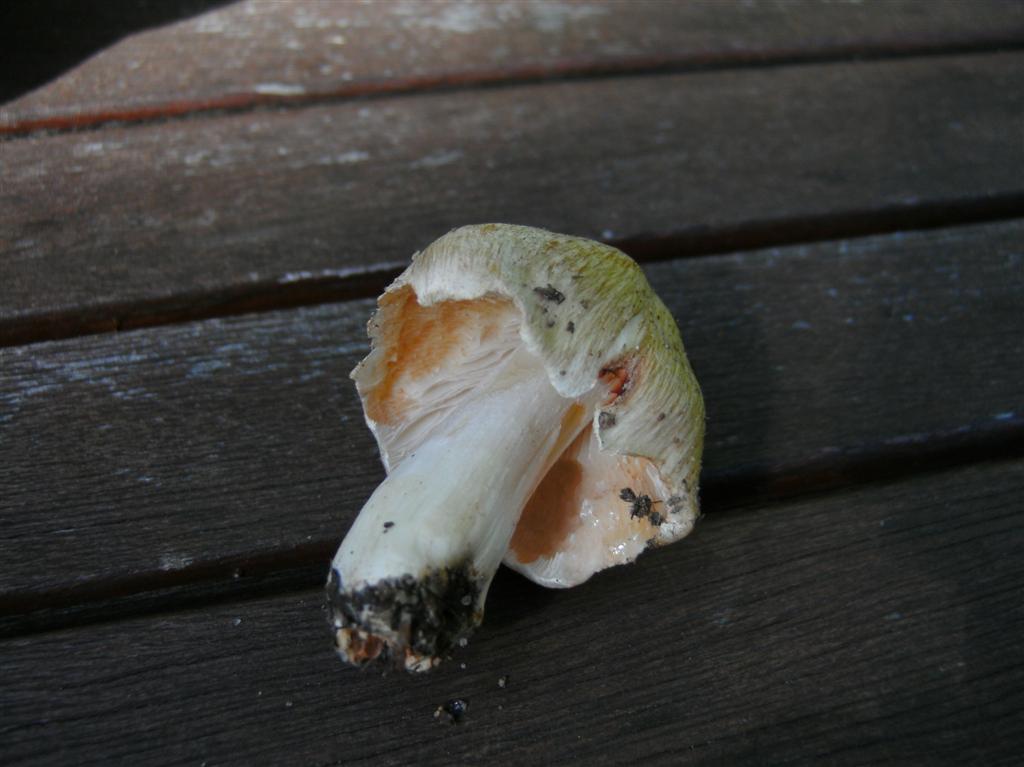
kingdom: Fungi
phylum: Basidiomycota
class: Agaricomycetes
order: Agaricales
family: Inocybaceae
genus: Inosperma
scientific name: Inosperma erubescens
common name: giftig trævlhat
